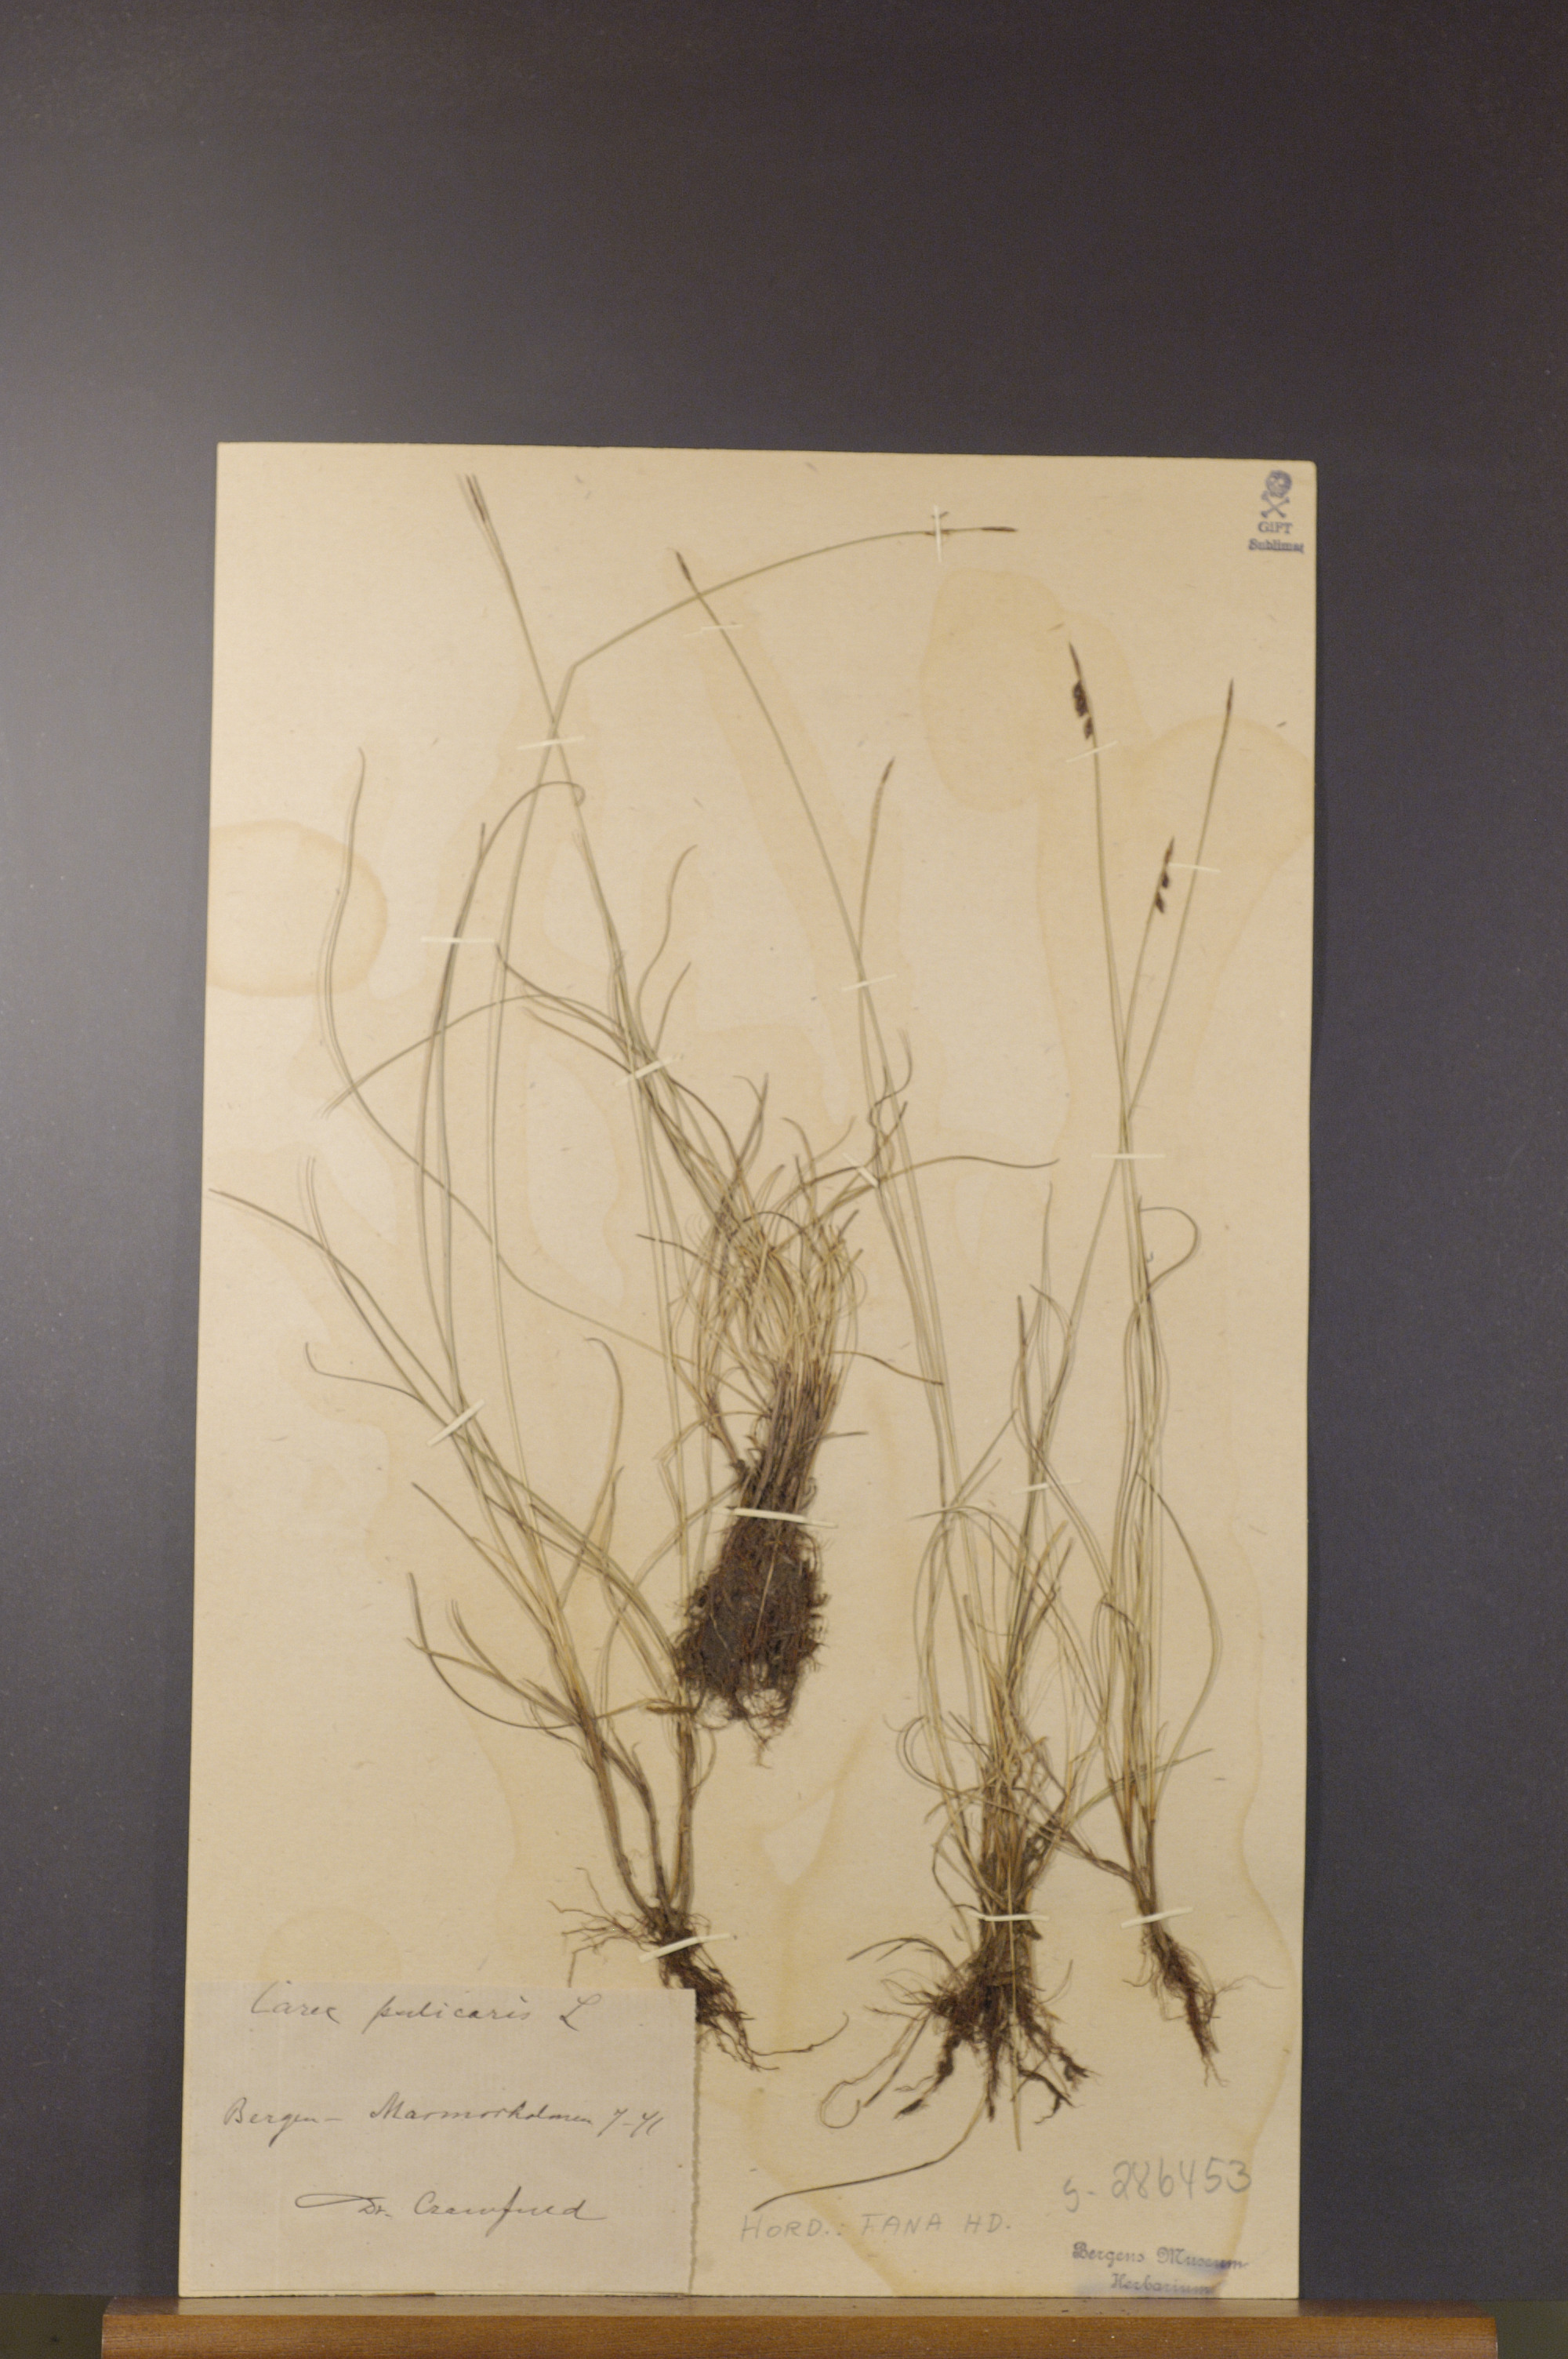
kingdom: Plantae
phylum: Tracheophyta
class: Liliopsida
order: Poales
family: Cyperaceae
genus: Carex
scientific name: Carex pulicaris
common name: Flea sedge
